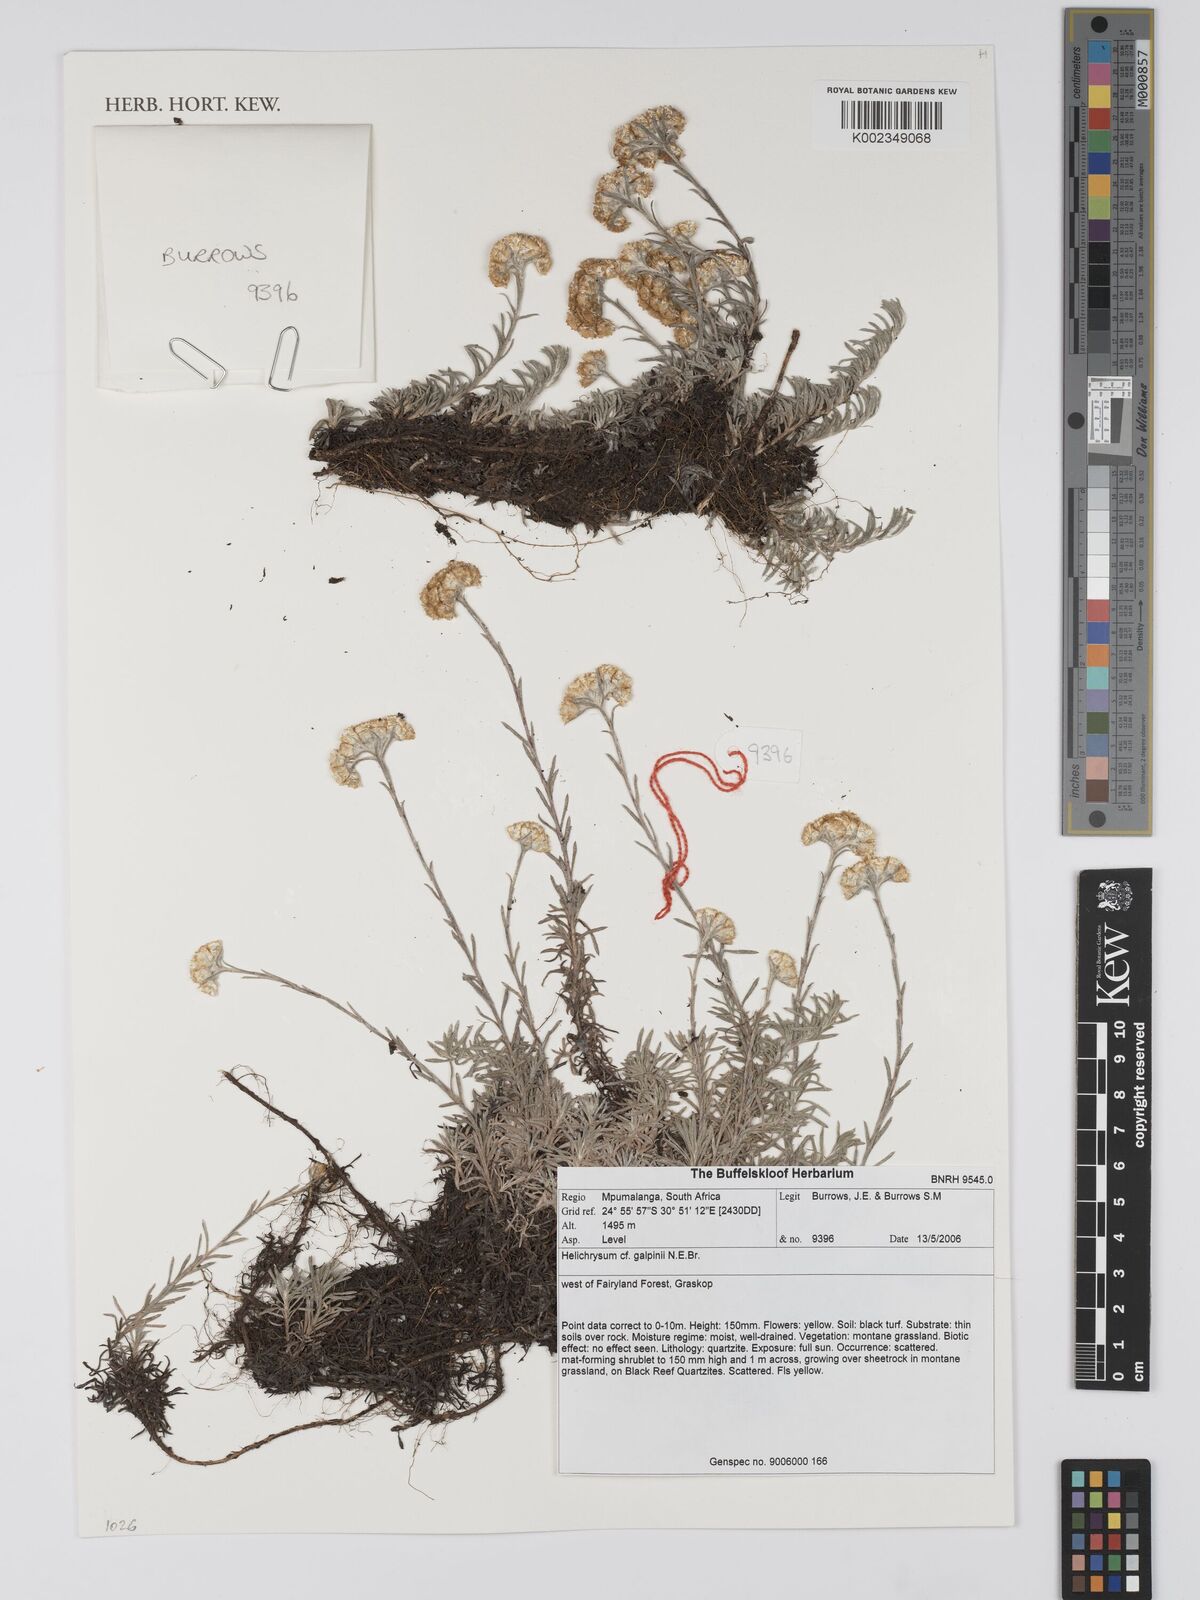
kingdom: Plantae
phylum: Tracheophyta
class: Magnoliopsida
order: Asterales
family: Asteraceae
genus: Helichrysum
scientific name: Helichrysum galpinii
